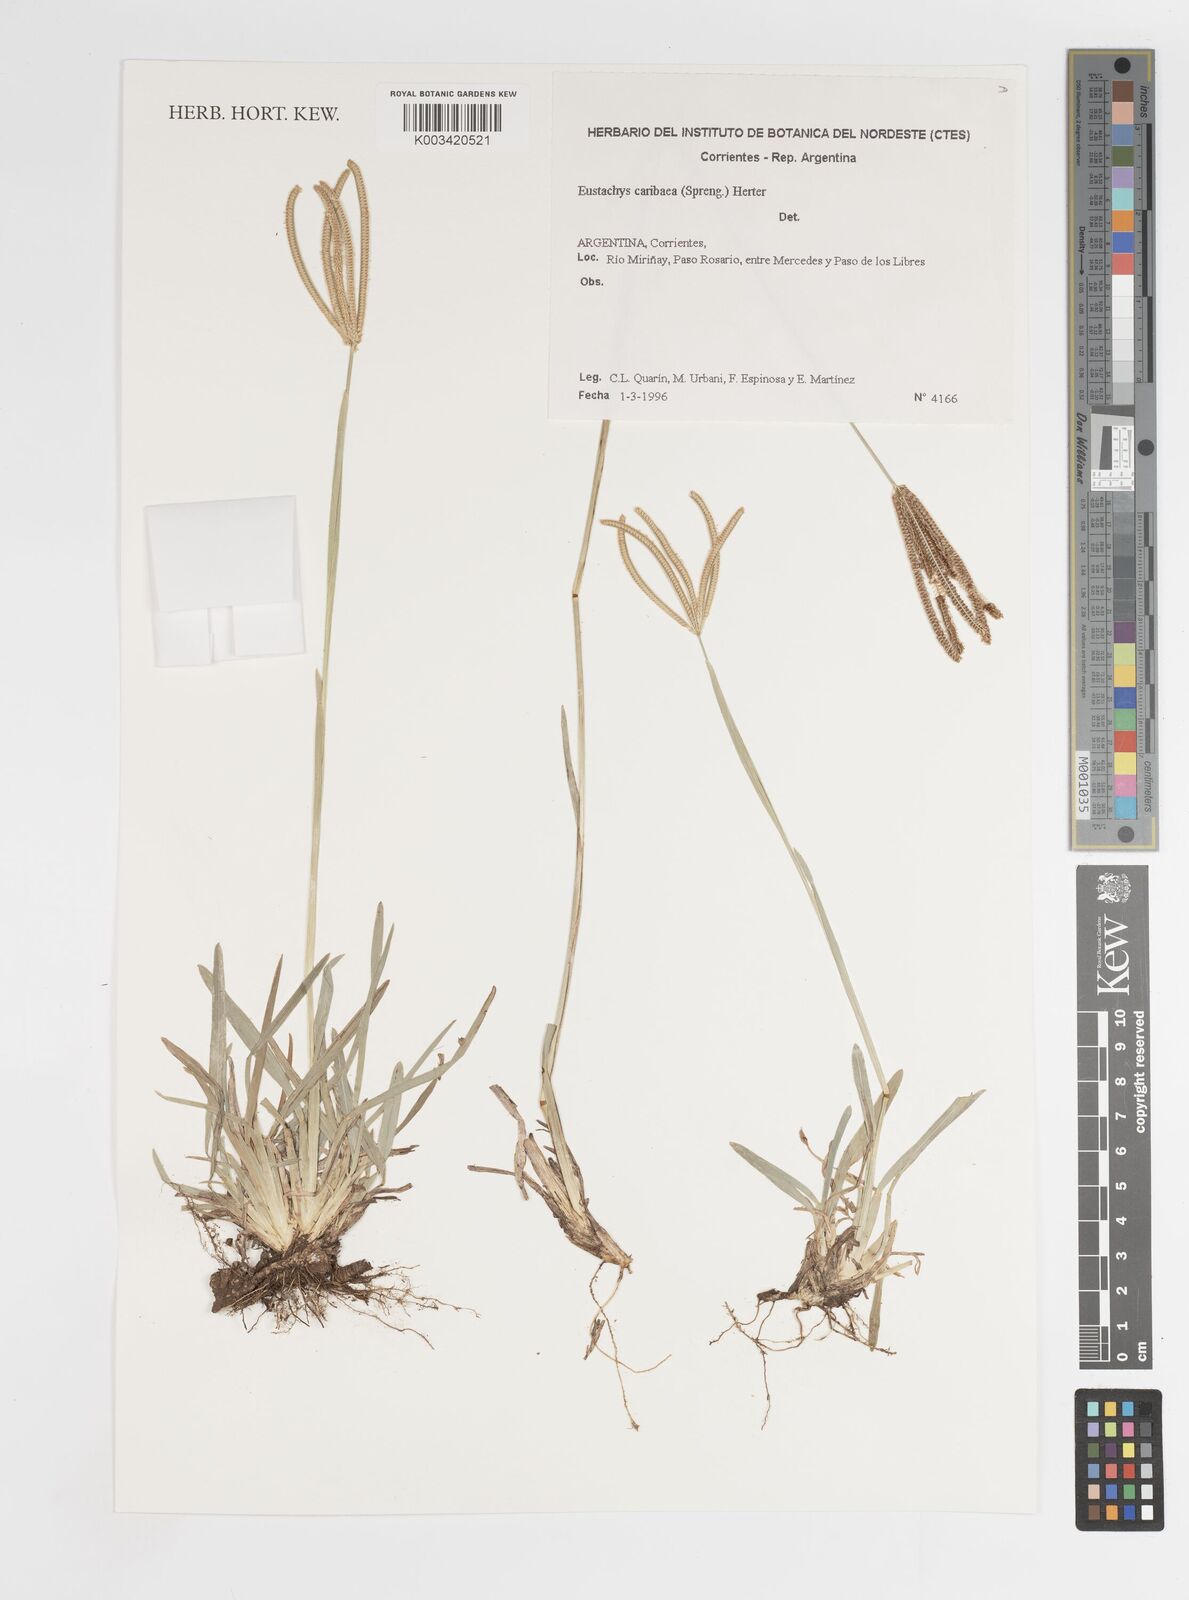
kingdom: Plantae
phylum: Tracheophyta
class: Liliopsida
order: Poales
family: Poaceae
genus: Eustachys
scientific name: Eustachys bahiensis
